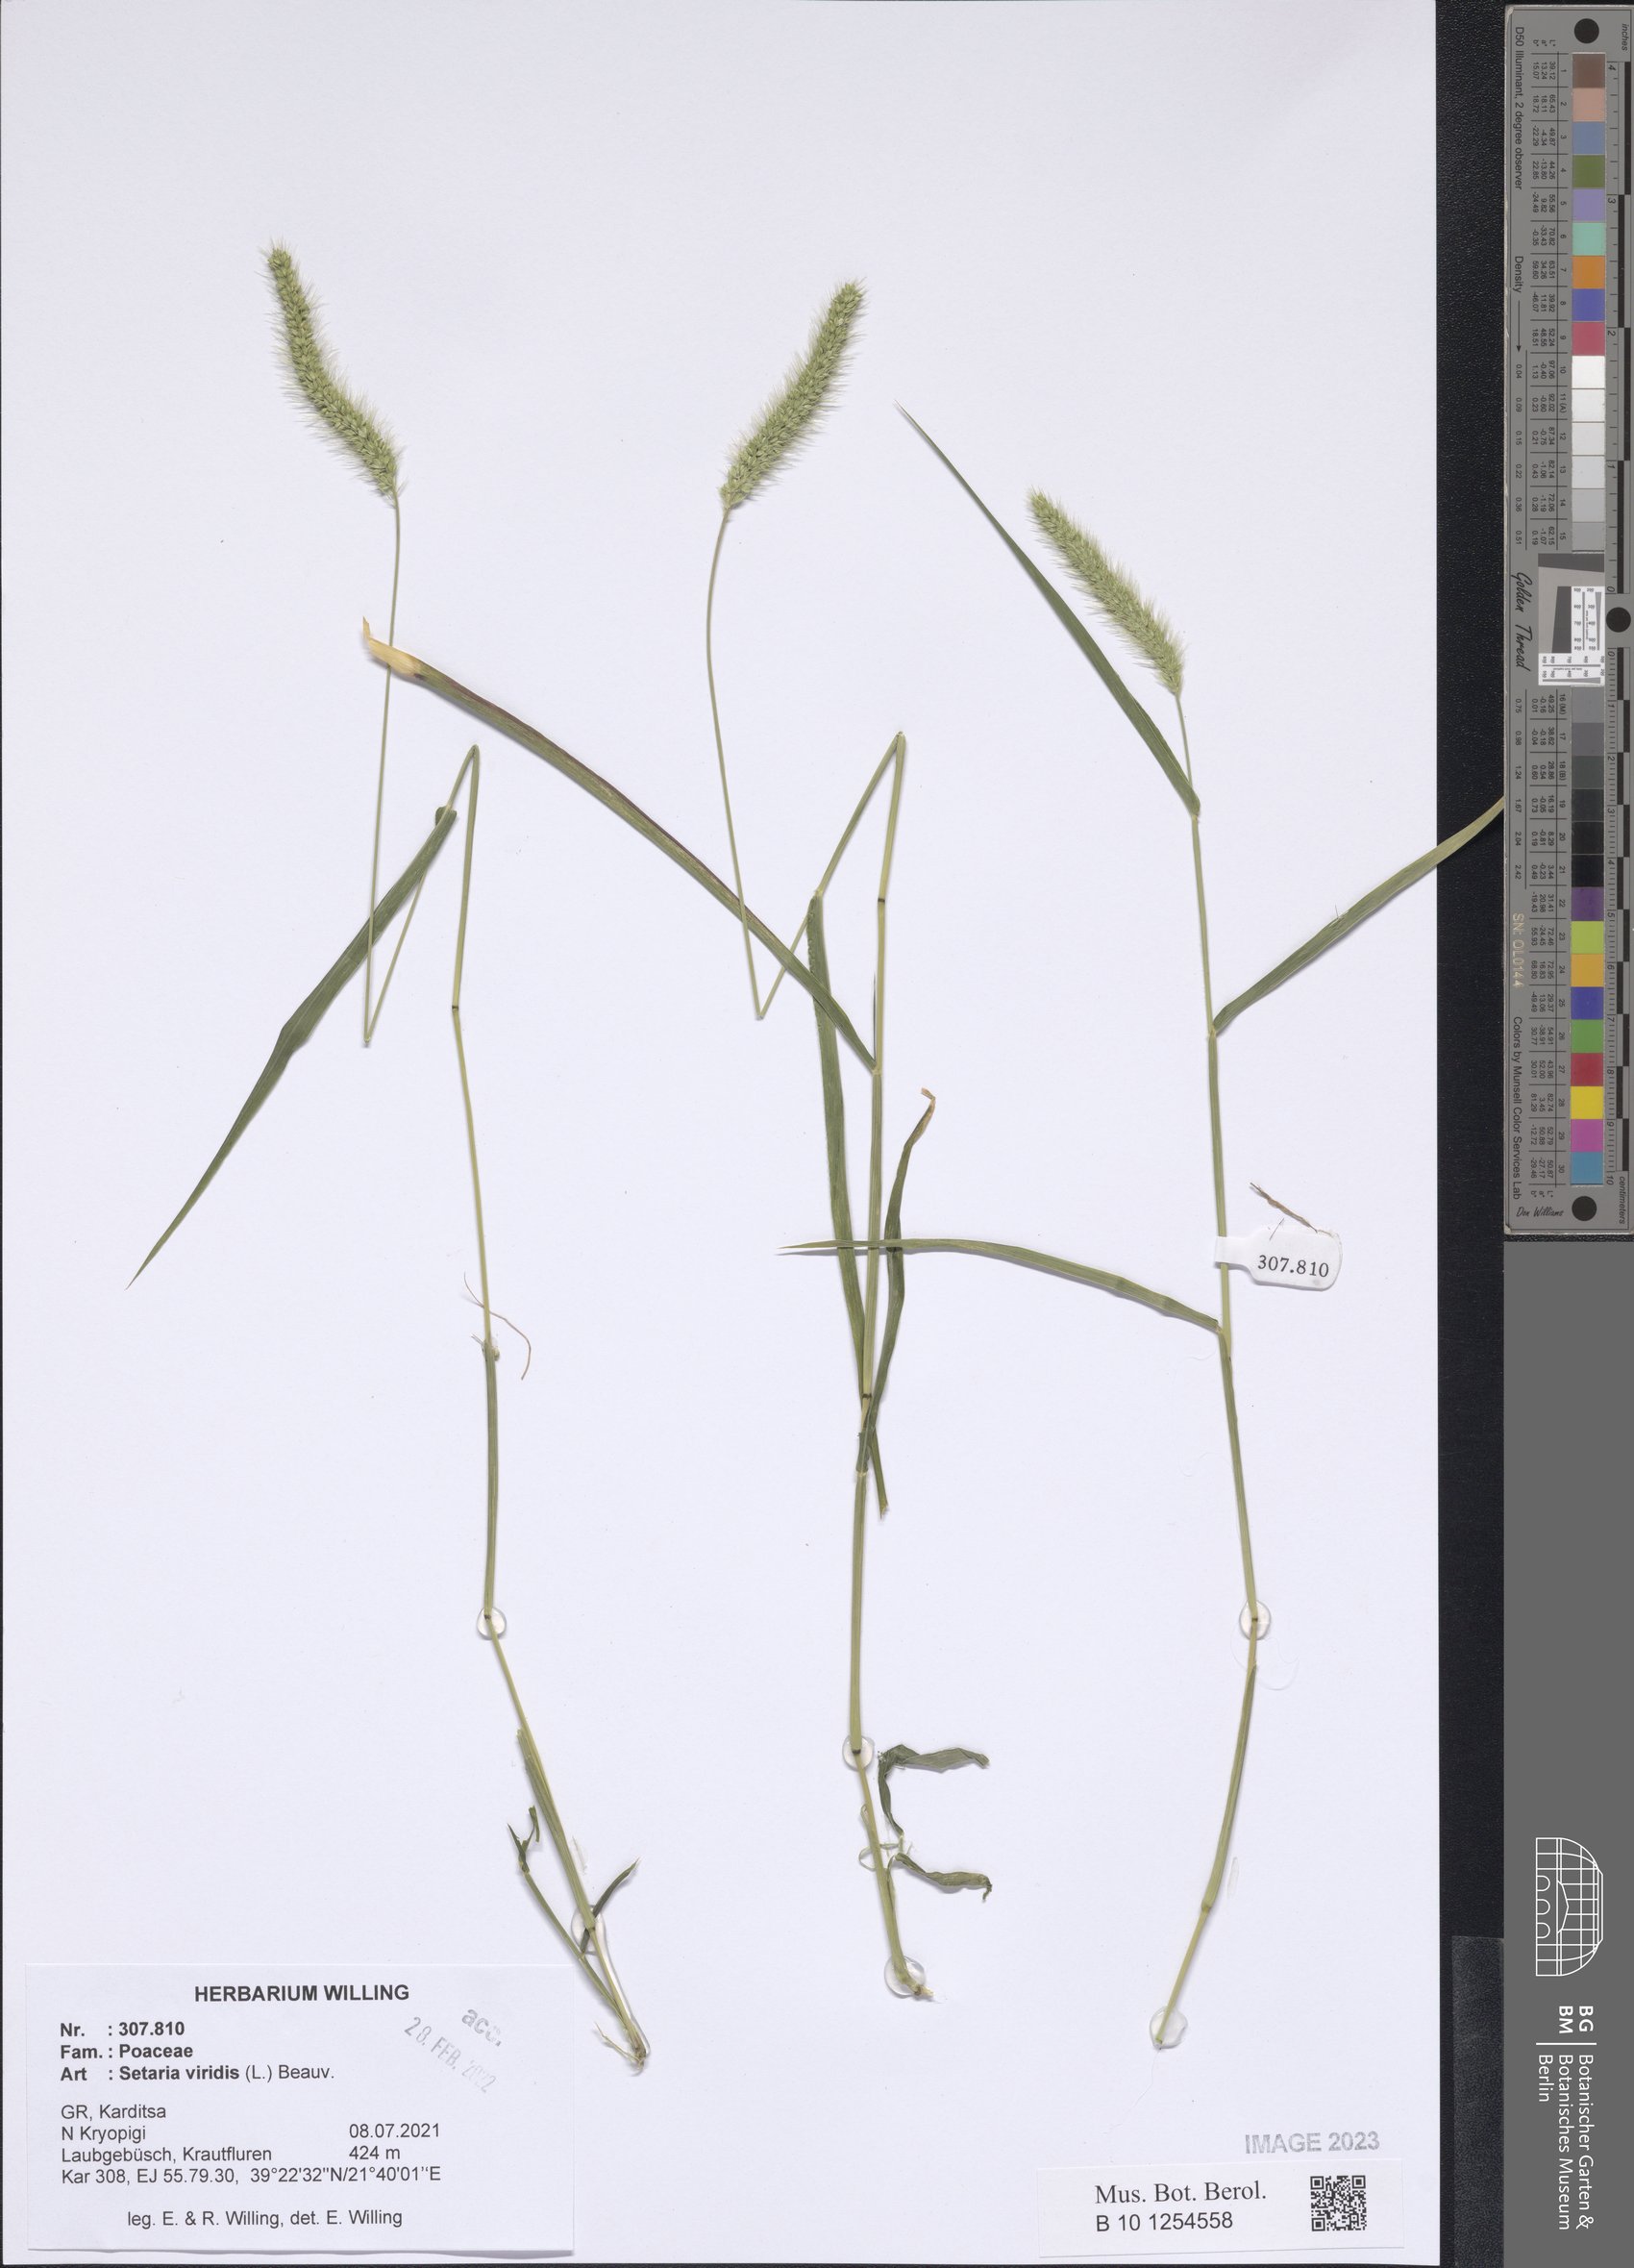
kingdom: Plantae
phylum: Tracheophyta
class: Liliopsida
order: Poales
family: Poaceae
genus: Setaria
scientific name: Setaria viridis
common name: Green bristlegrass
